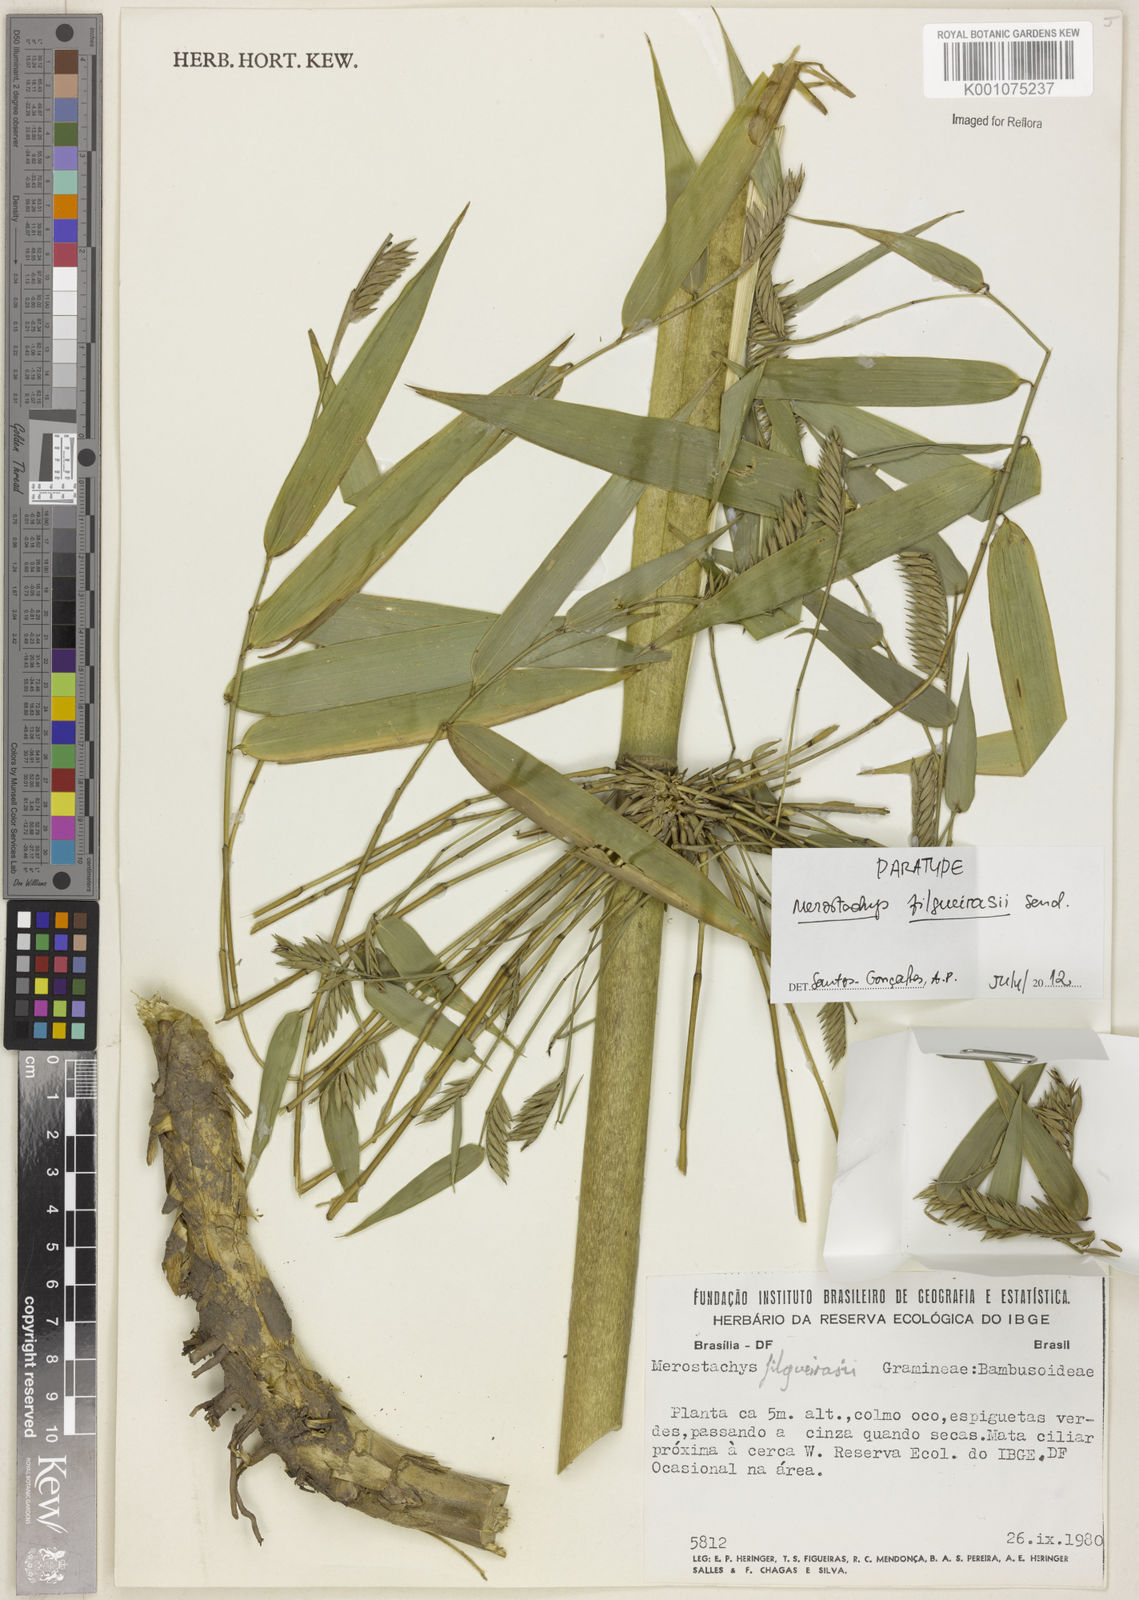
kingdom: Plantae
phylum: Tracheophyta
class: Liliopsida
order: Poales
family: Poaceae
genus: Merostachys
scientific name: Merostachys filgueirasii
